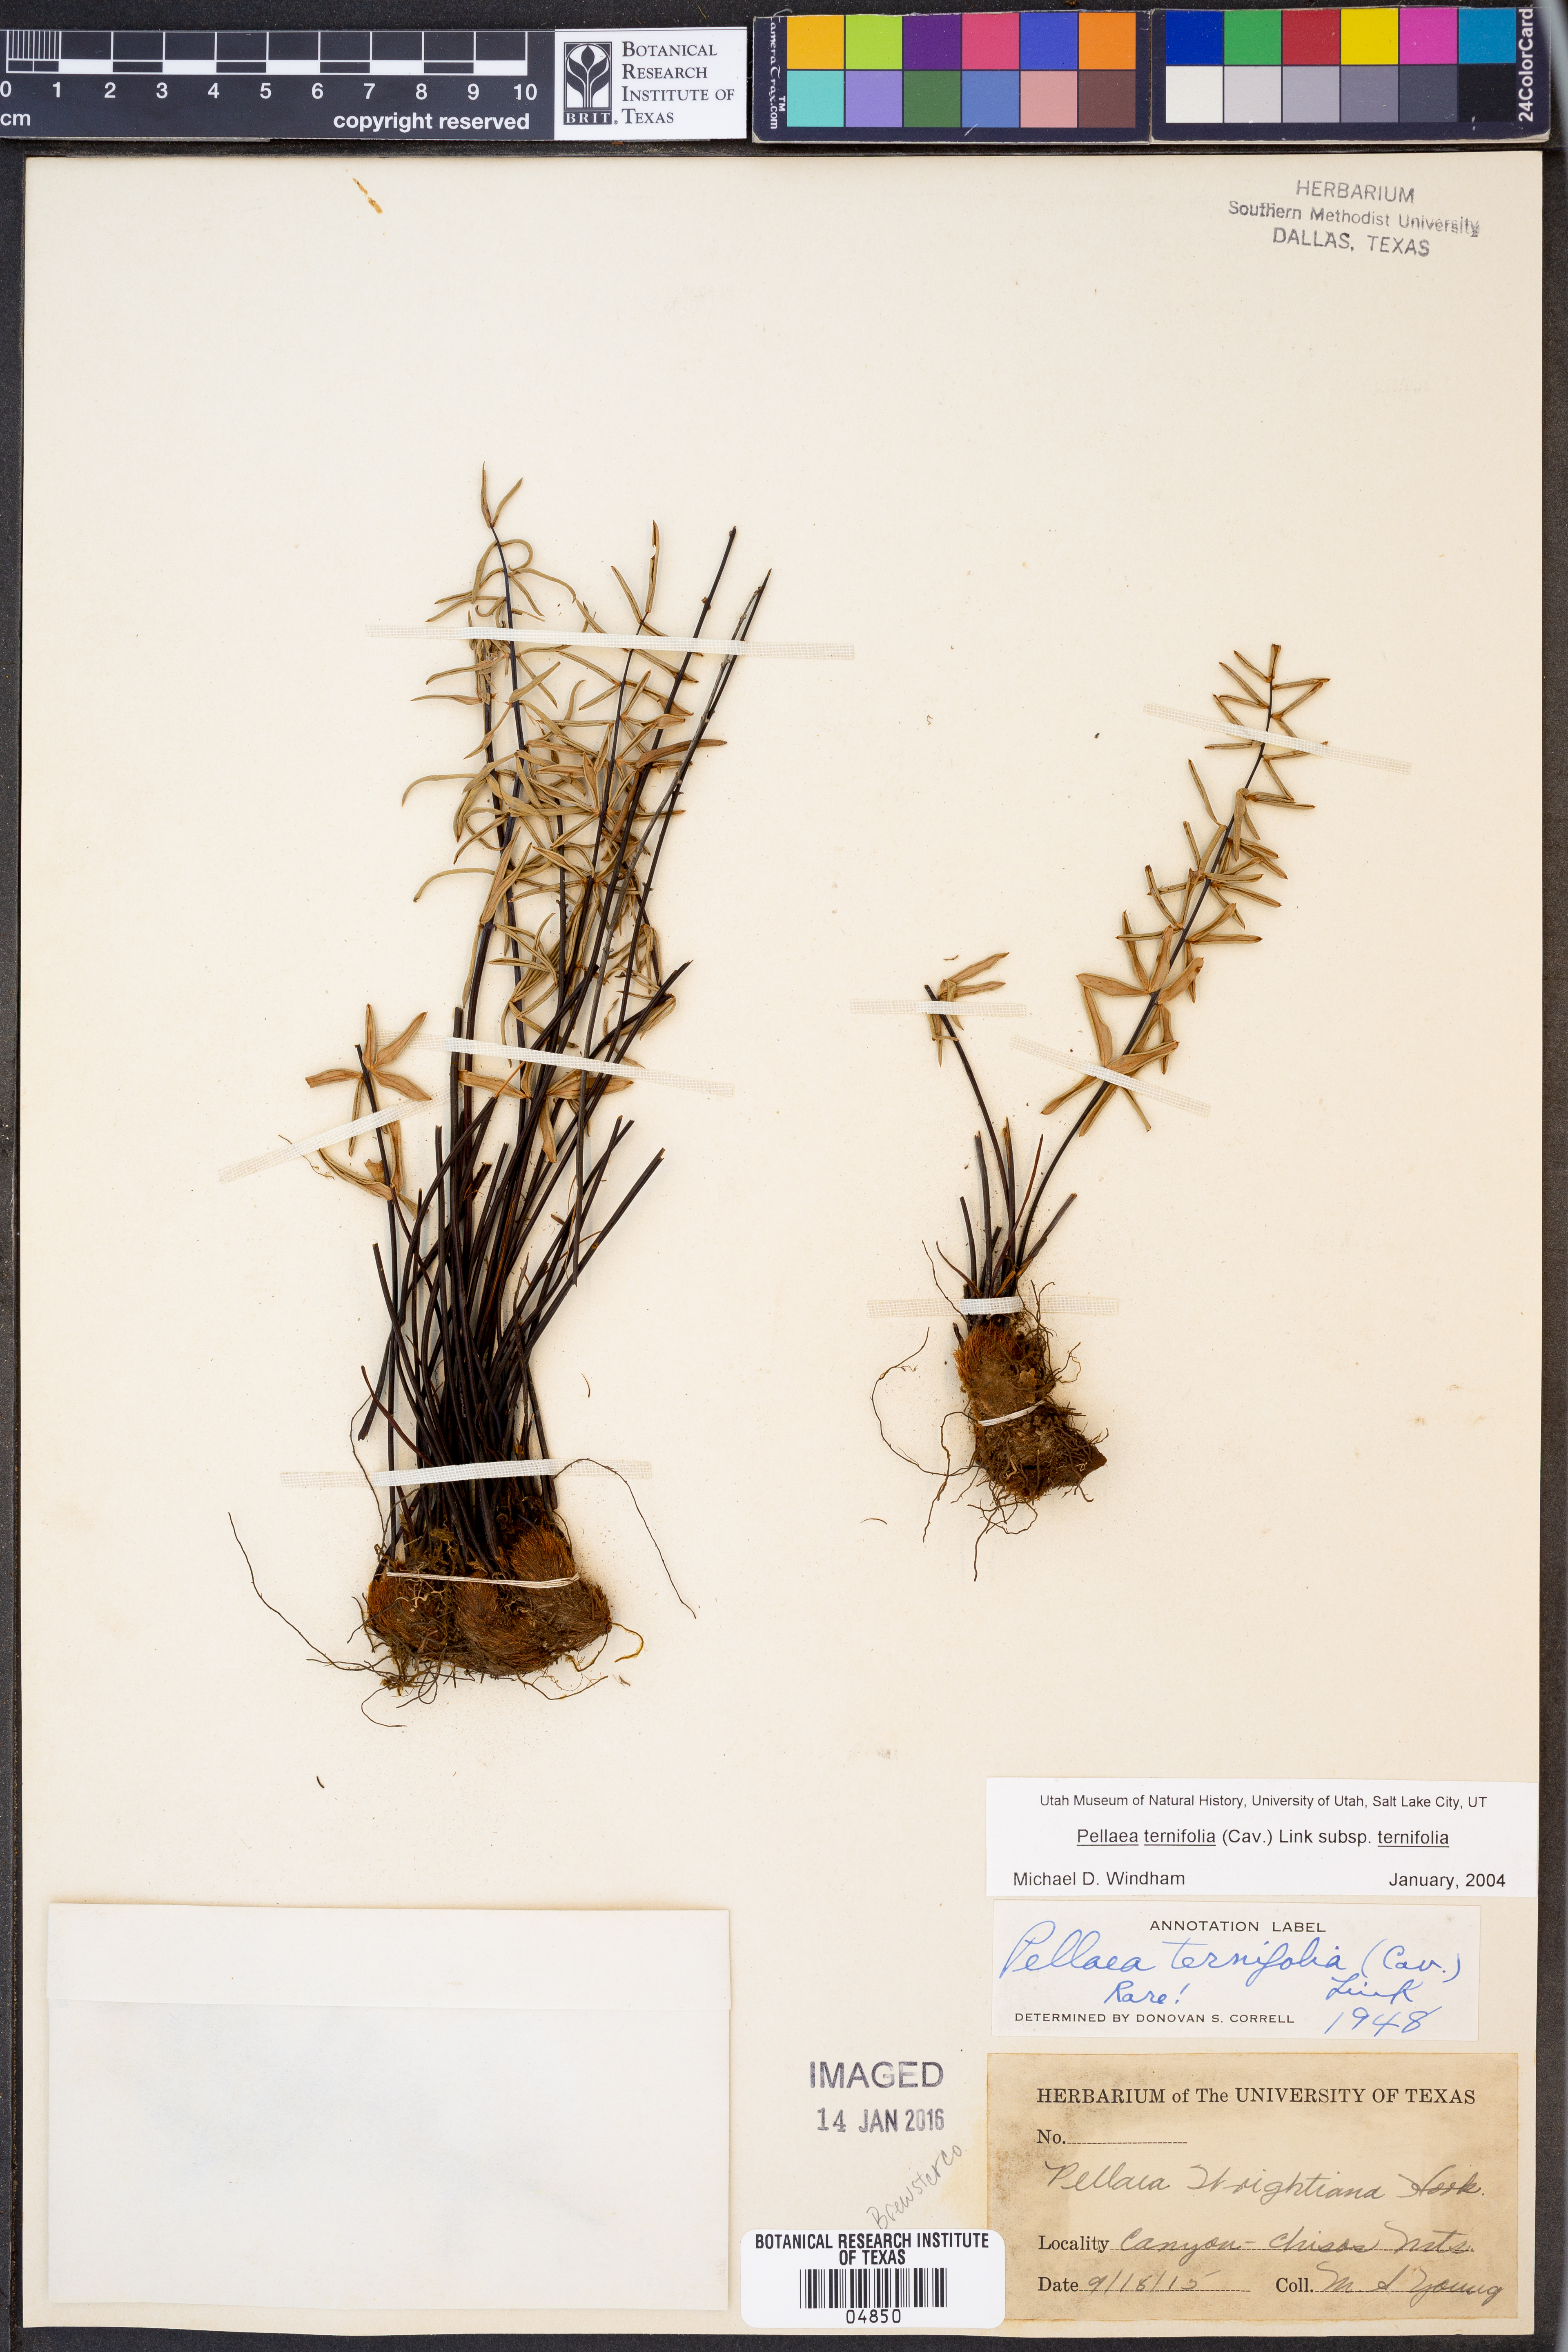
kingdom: Plantae
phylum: Tracheophyta
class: Polypodiopsida
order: Polypodiales
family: Pteridaceae
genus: Pellaea
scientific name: Pellaea ternifolia
